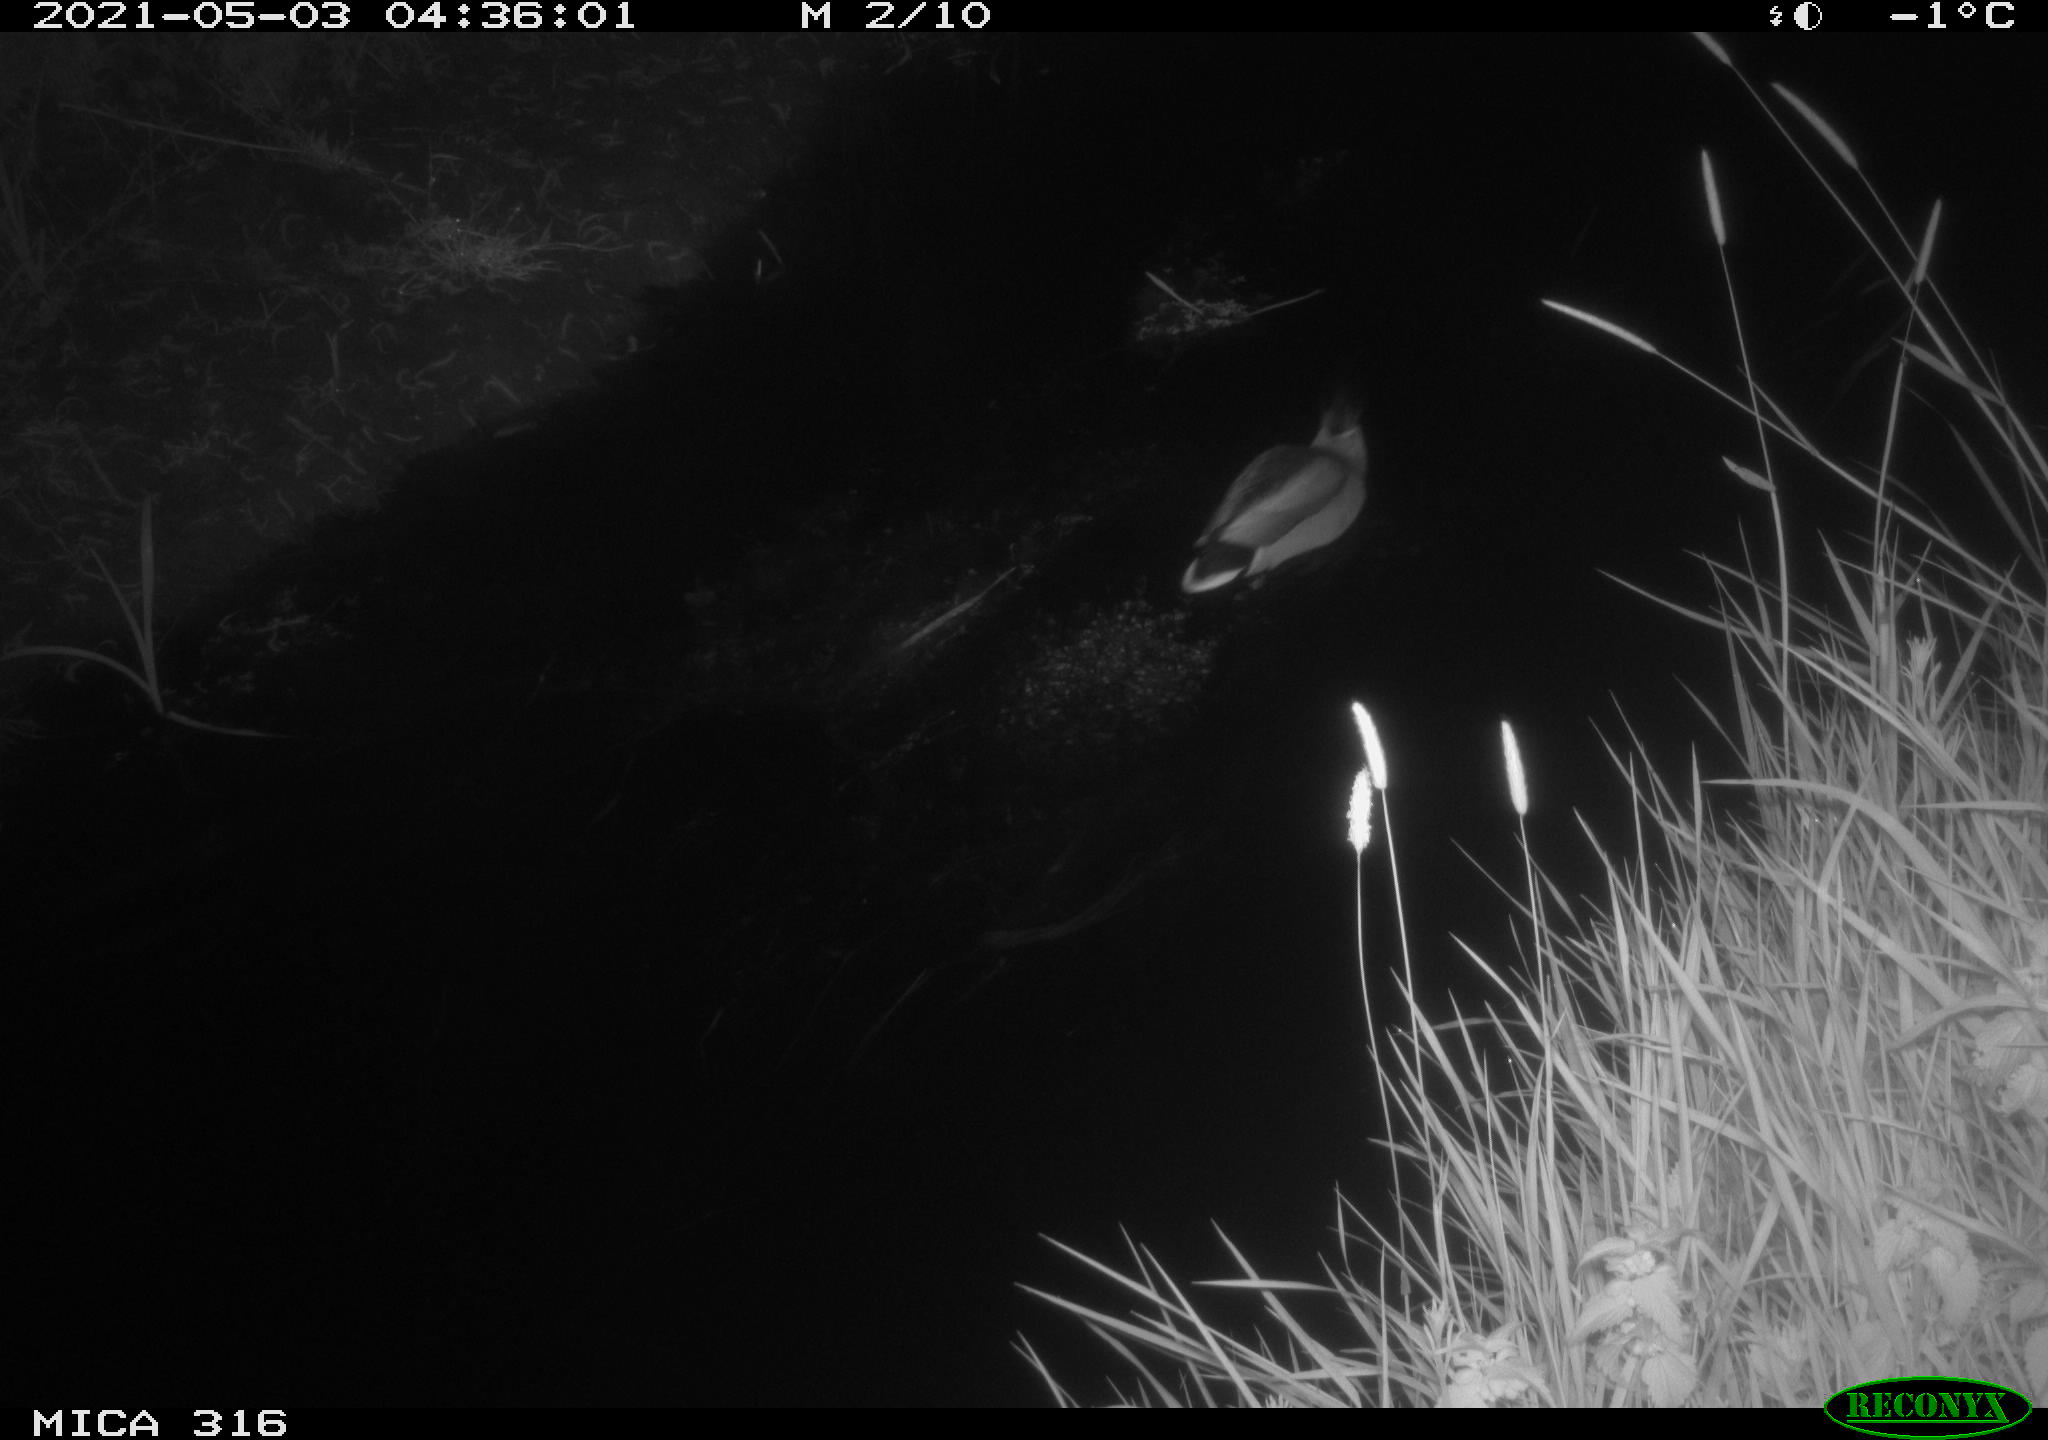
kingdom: Animalia
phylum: Chordata
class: Aves
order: Anseriformes
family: Anatidae
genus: Anas
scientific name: Anas platyrhynchos
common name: Mallard
